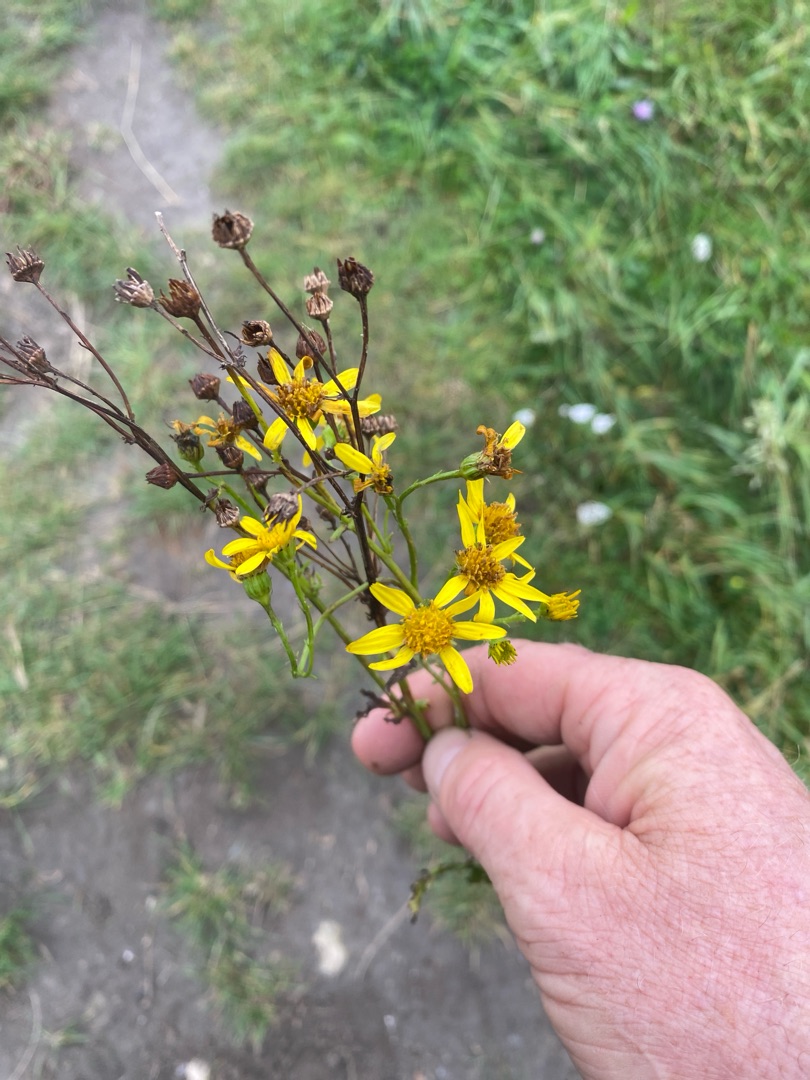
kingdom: Plantae
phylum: Tracheophyta
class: Magnoliopsida
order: Asterales
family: Asteraceae
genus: Jacobaea
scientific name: Jacobaea vulgaris
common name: Eng-brandbæger
